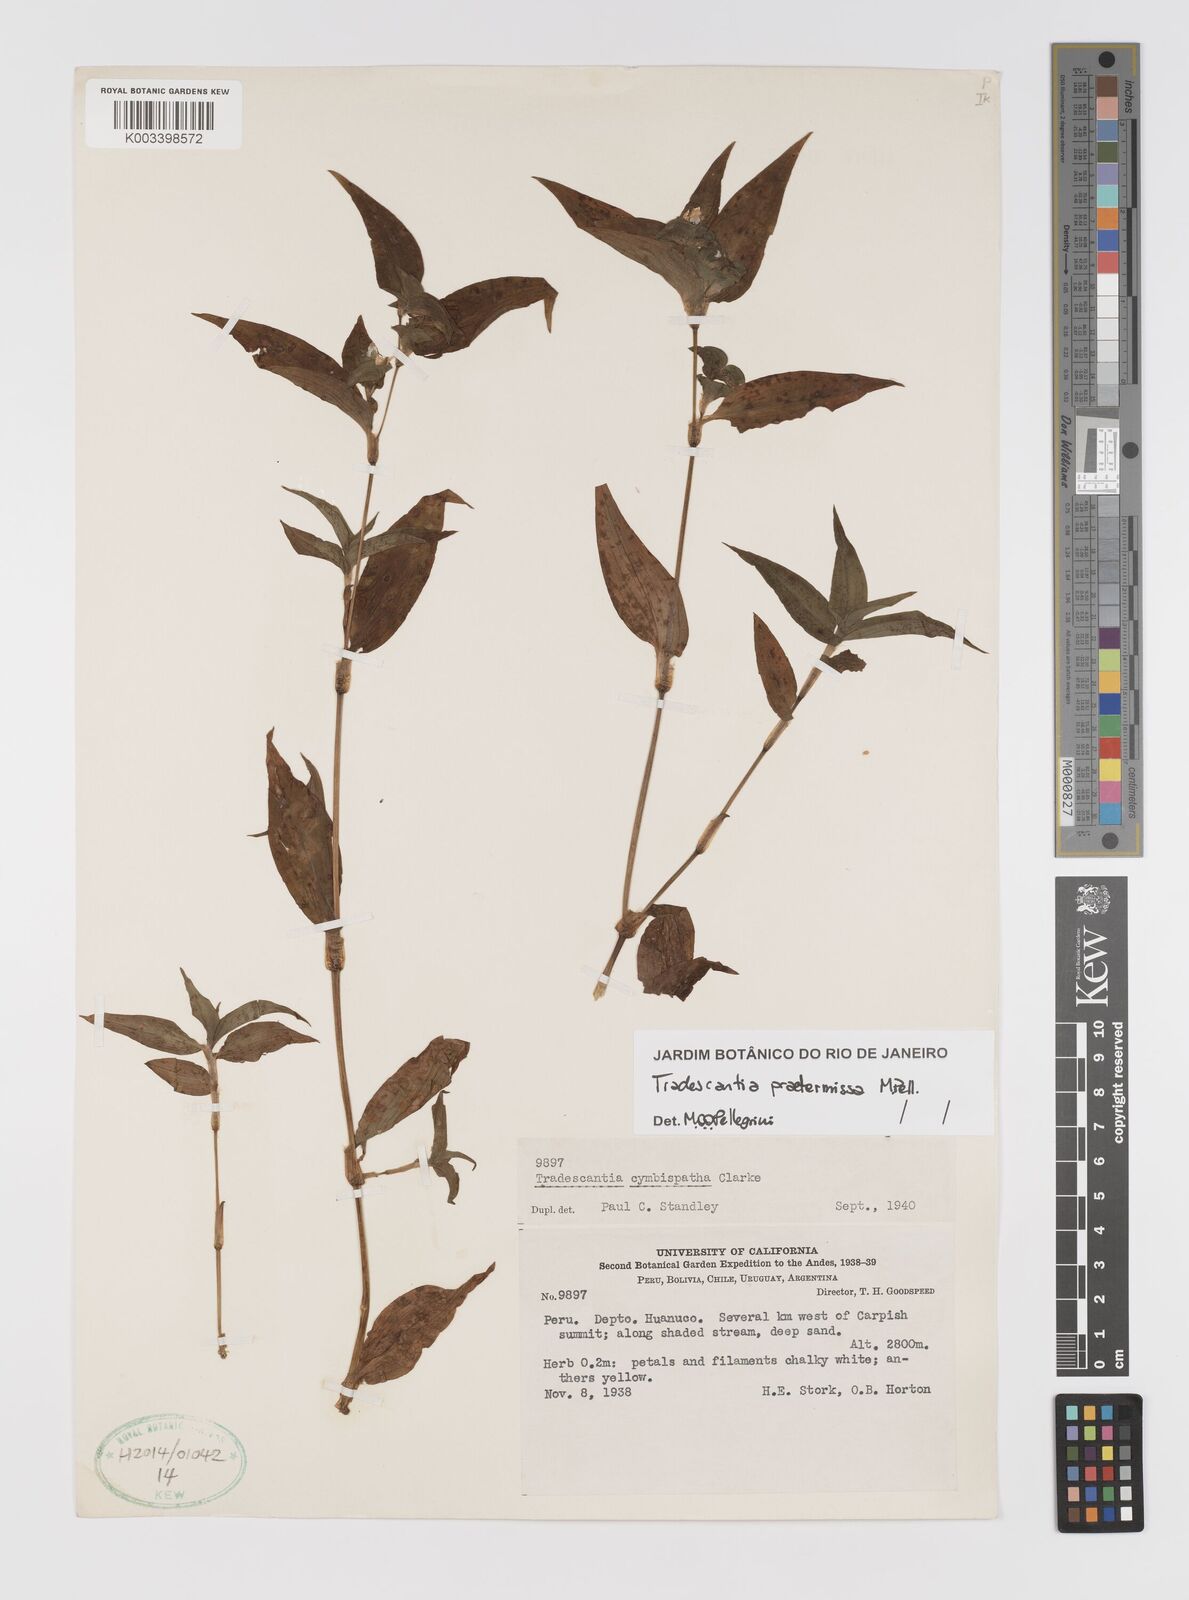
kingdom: Plantae
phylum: Tracheophyta
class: Liliopsida
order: Commelinales
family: Commelinaceae
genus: Tradescantia
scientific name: Tradescantia praetermissa
